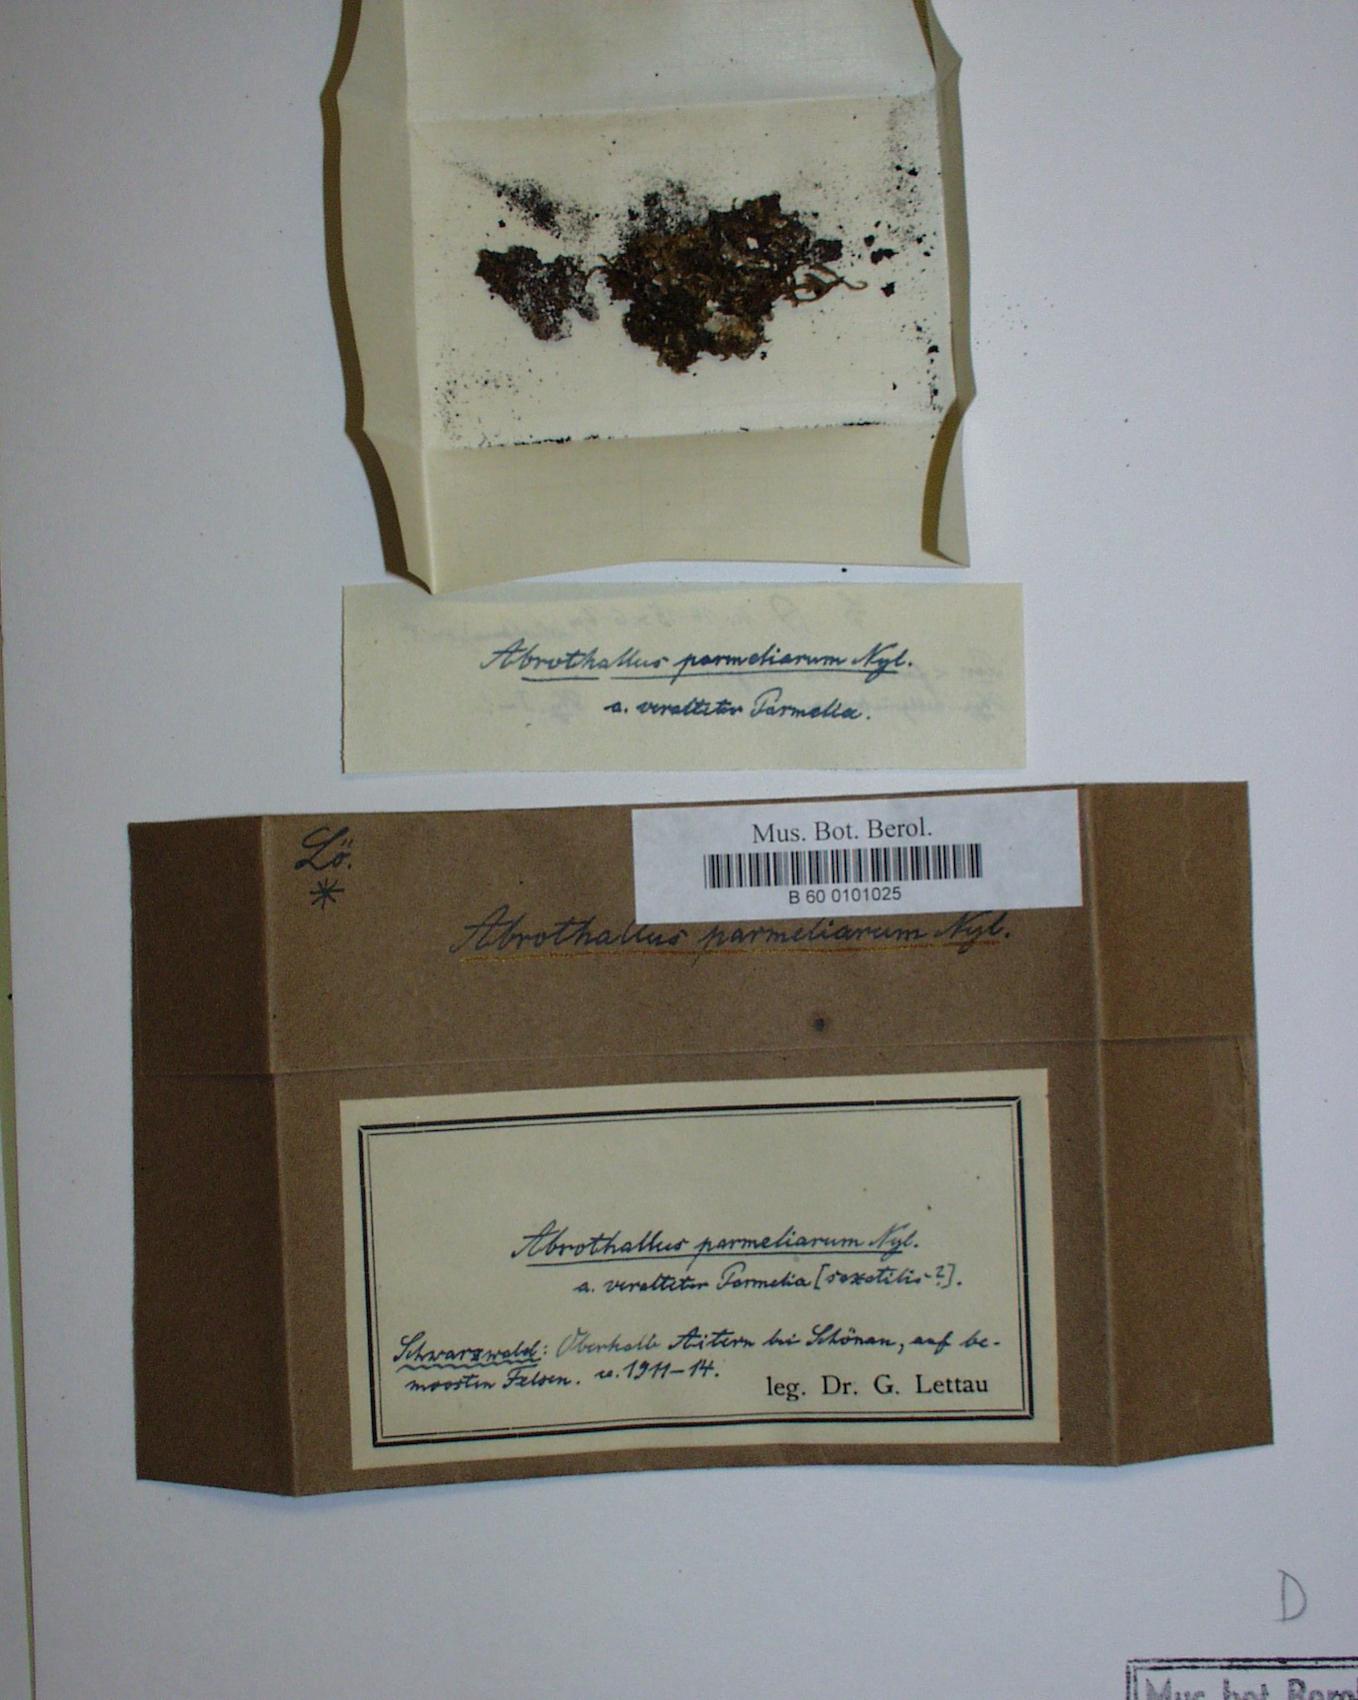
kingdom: Fungi
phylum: Ascomycota
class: Dothideomycetes
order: Abrothallales
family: Abrothallaceae
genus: Abrothallus
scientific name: Abrothallus parmeliarum
